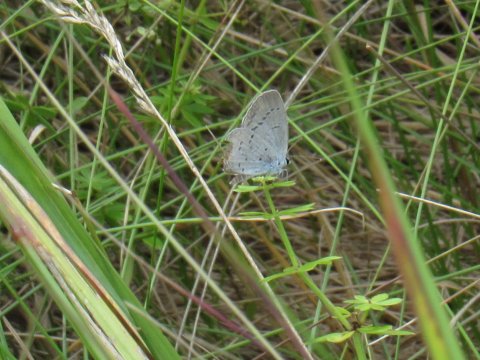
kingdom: Animalia
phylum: Arthropoda
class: Insecta
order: Lepidoptera
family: Lycaenidae
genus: Elkalyce
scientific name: Elkalyce comyntas
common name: Eastern Tailed-Blue
